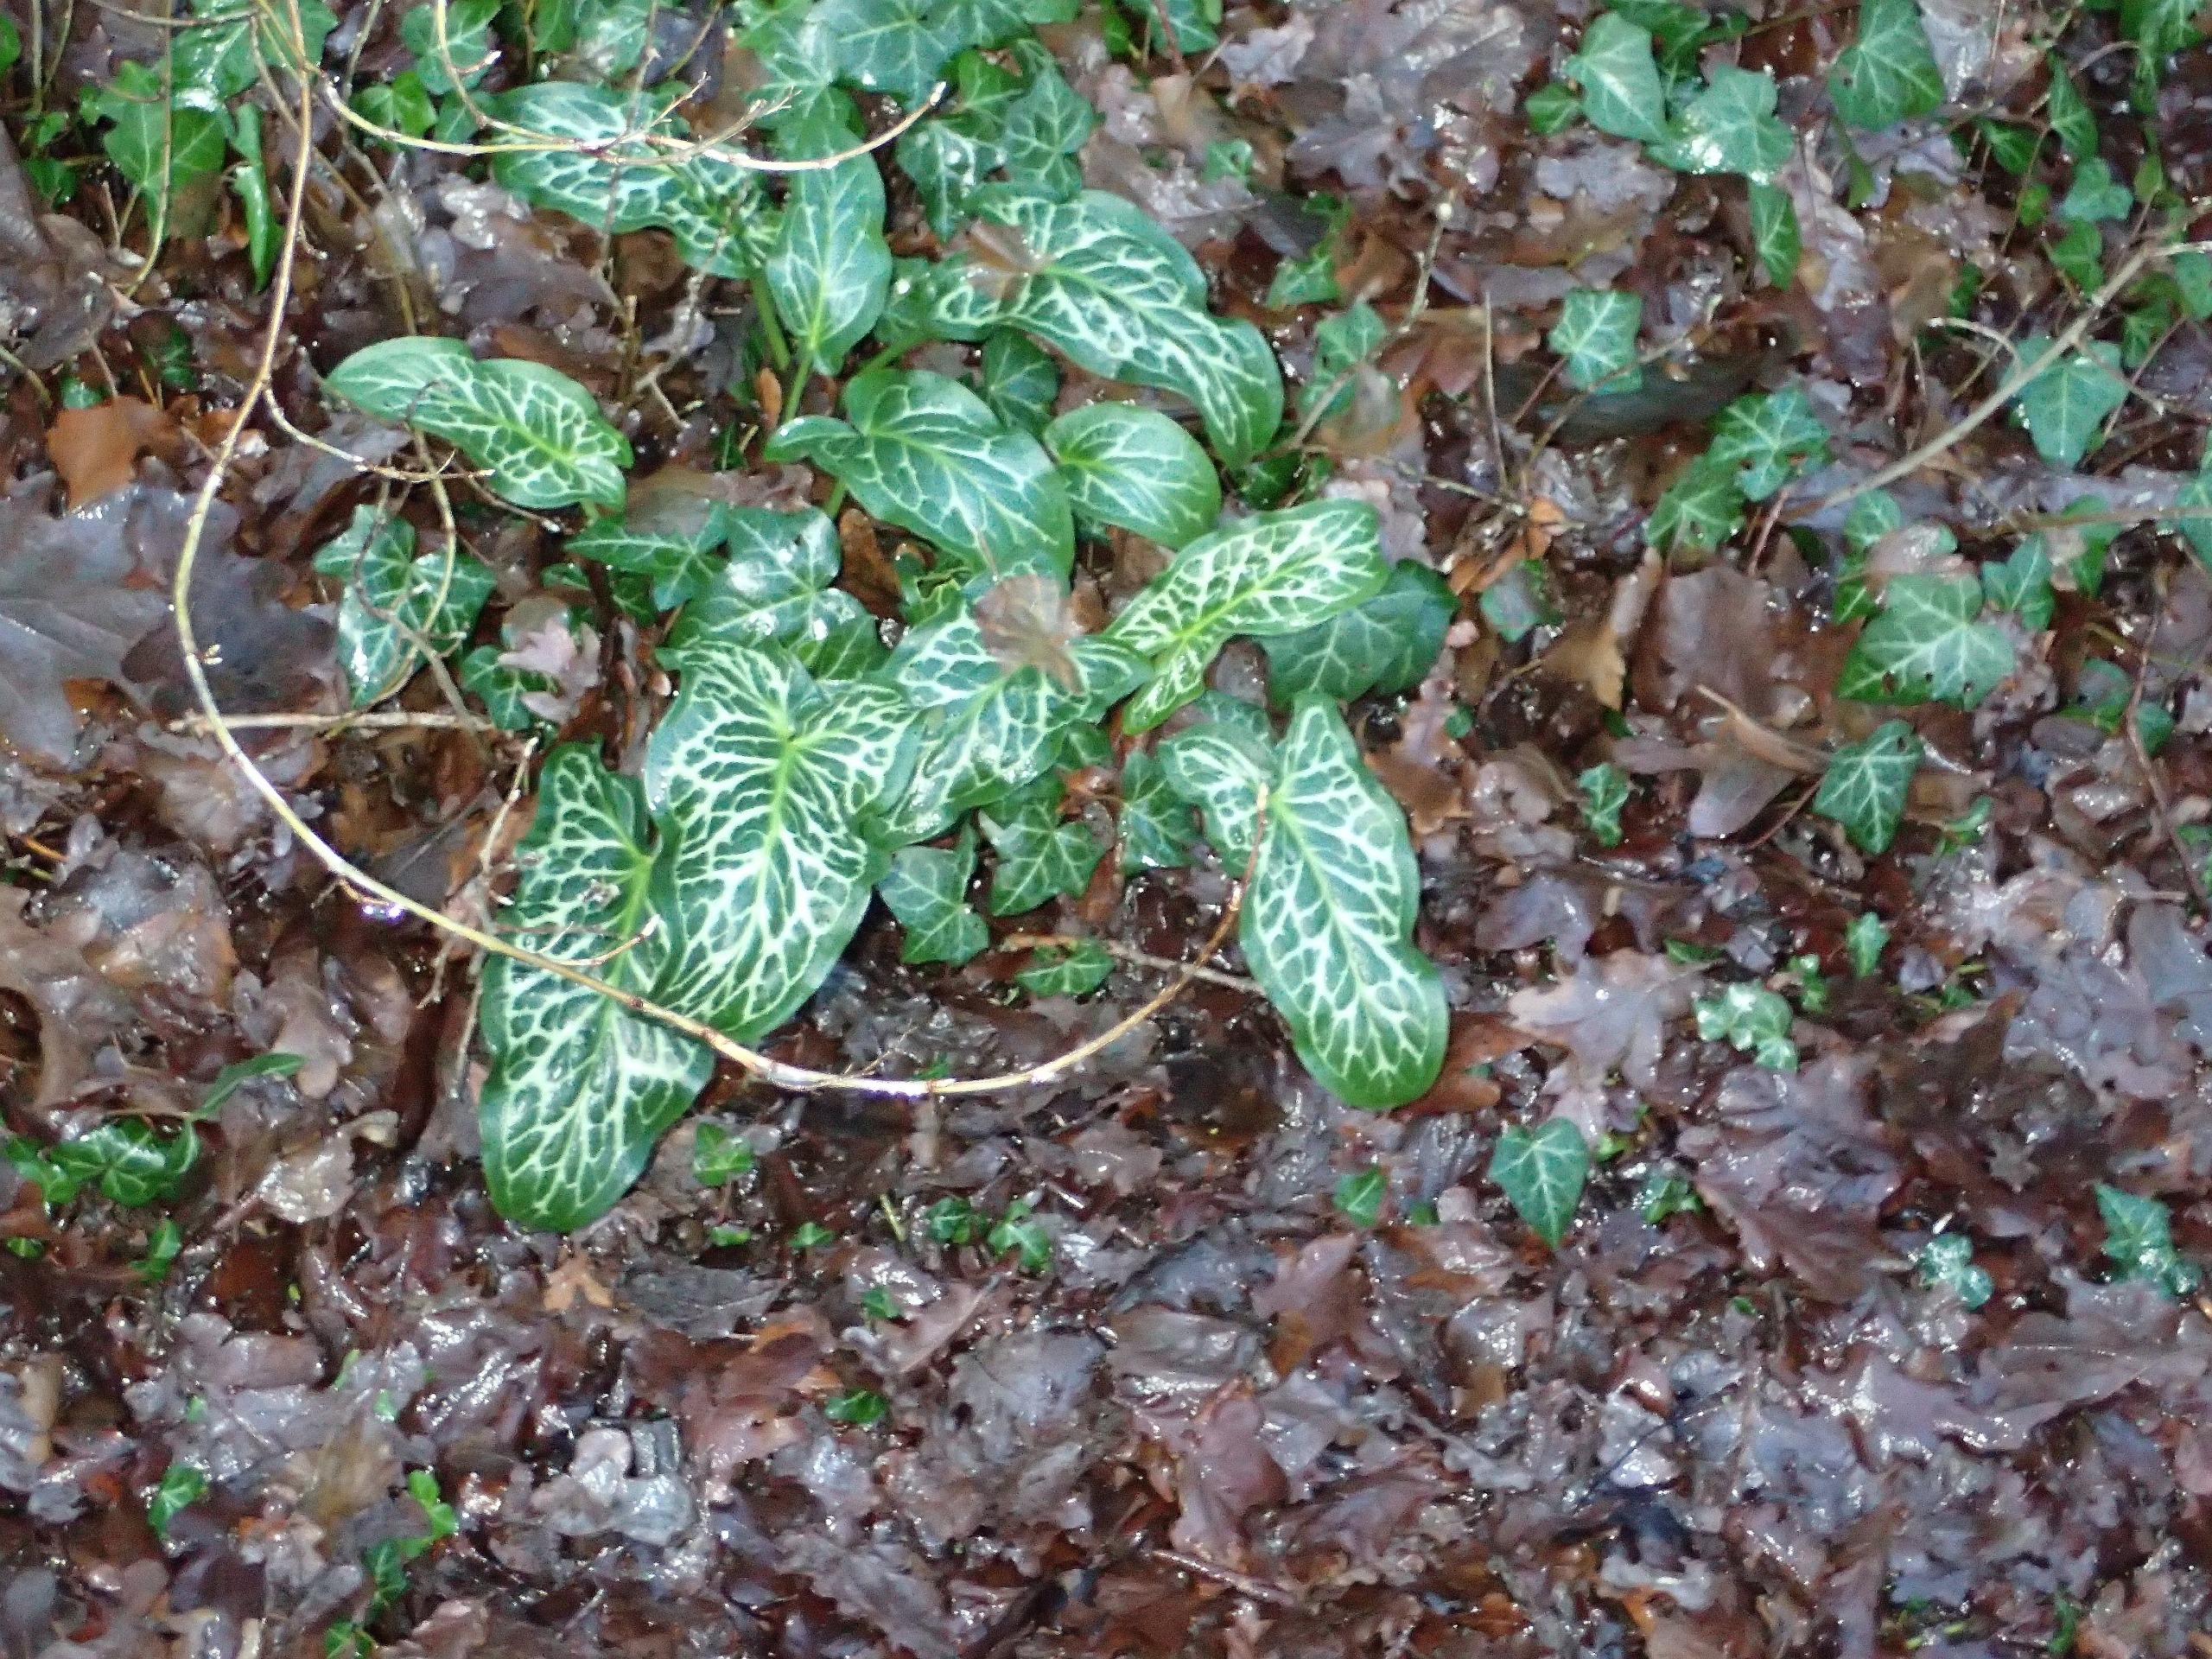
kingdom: Plantae
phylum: Tracheophyta
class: Liliopsida
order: Alismatales
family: Araceae
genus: Arum
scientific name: Arum italicum
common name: Italiensk arum
